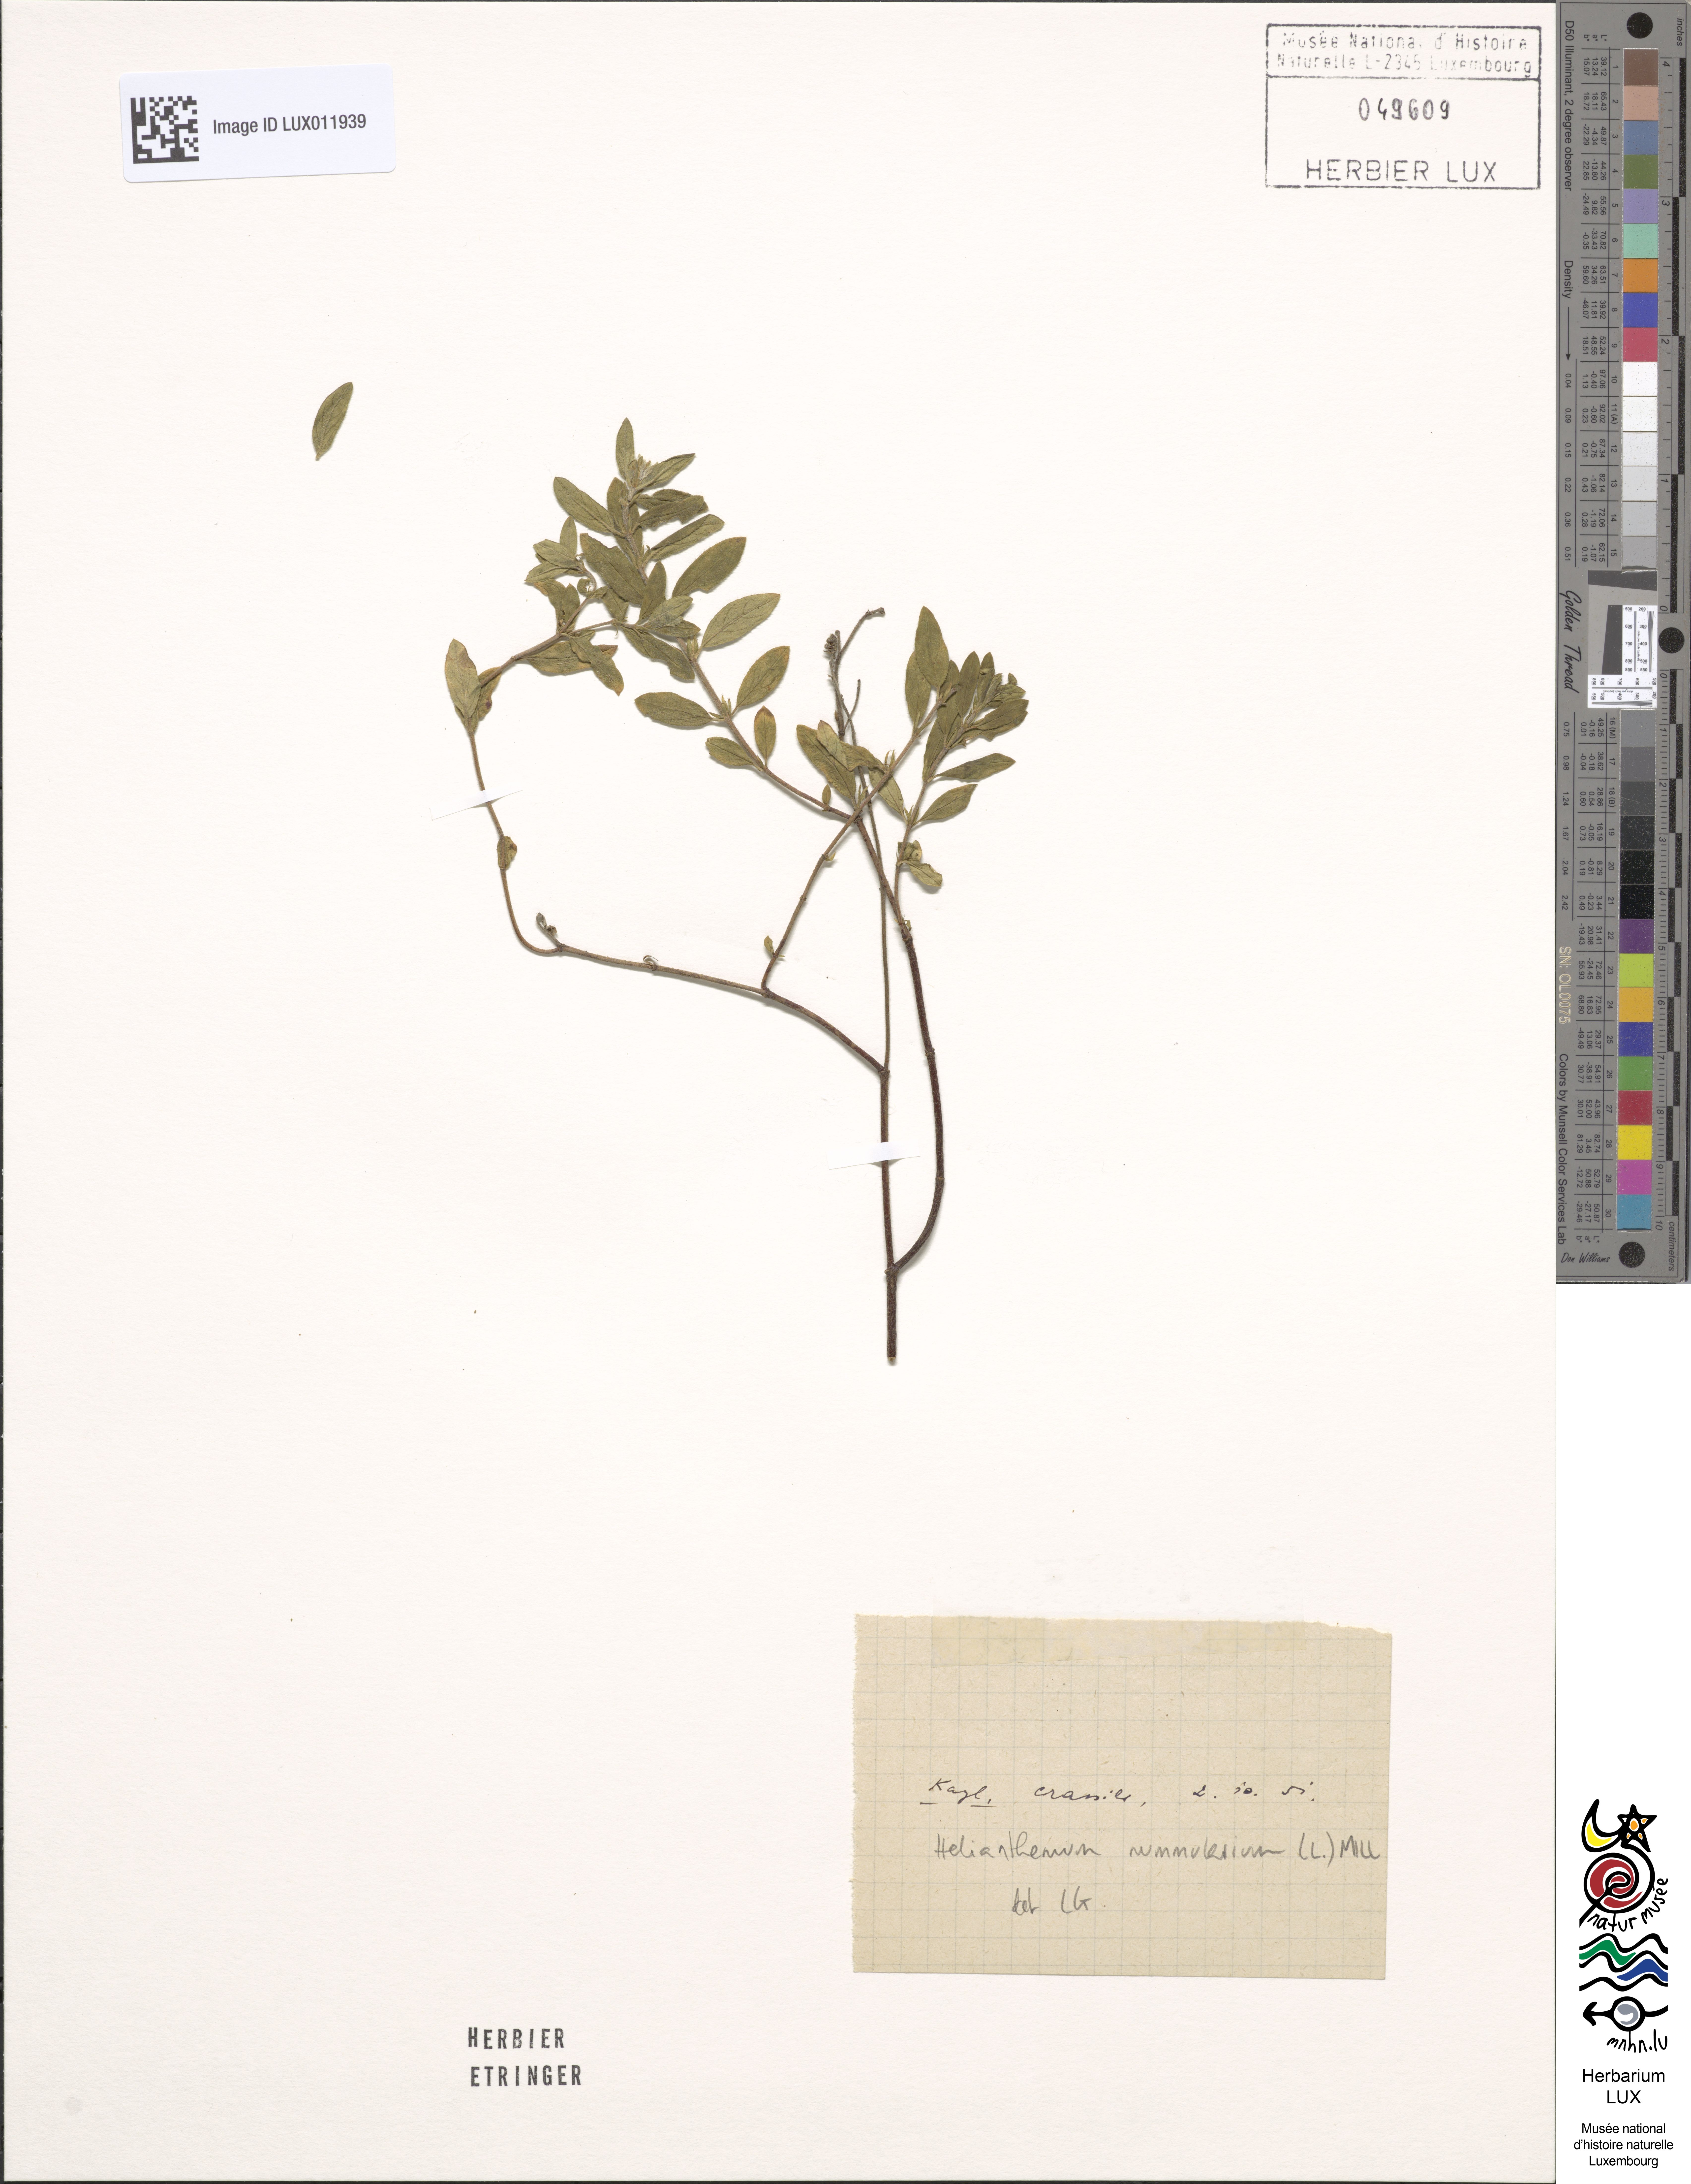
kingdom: Plantae
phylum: Tracheophyta
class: Magnoliopsida
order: Malvales
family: Cistaceae
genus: Helianthemum
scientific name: Helianthemum nummularium
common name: Common rock-rose
